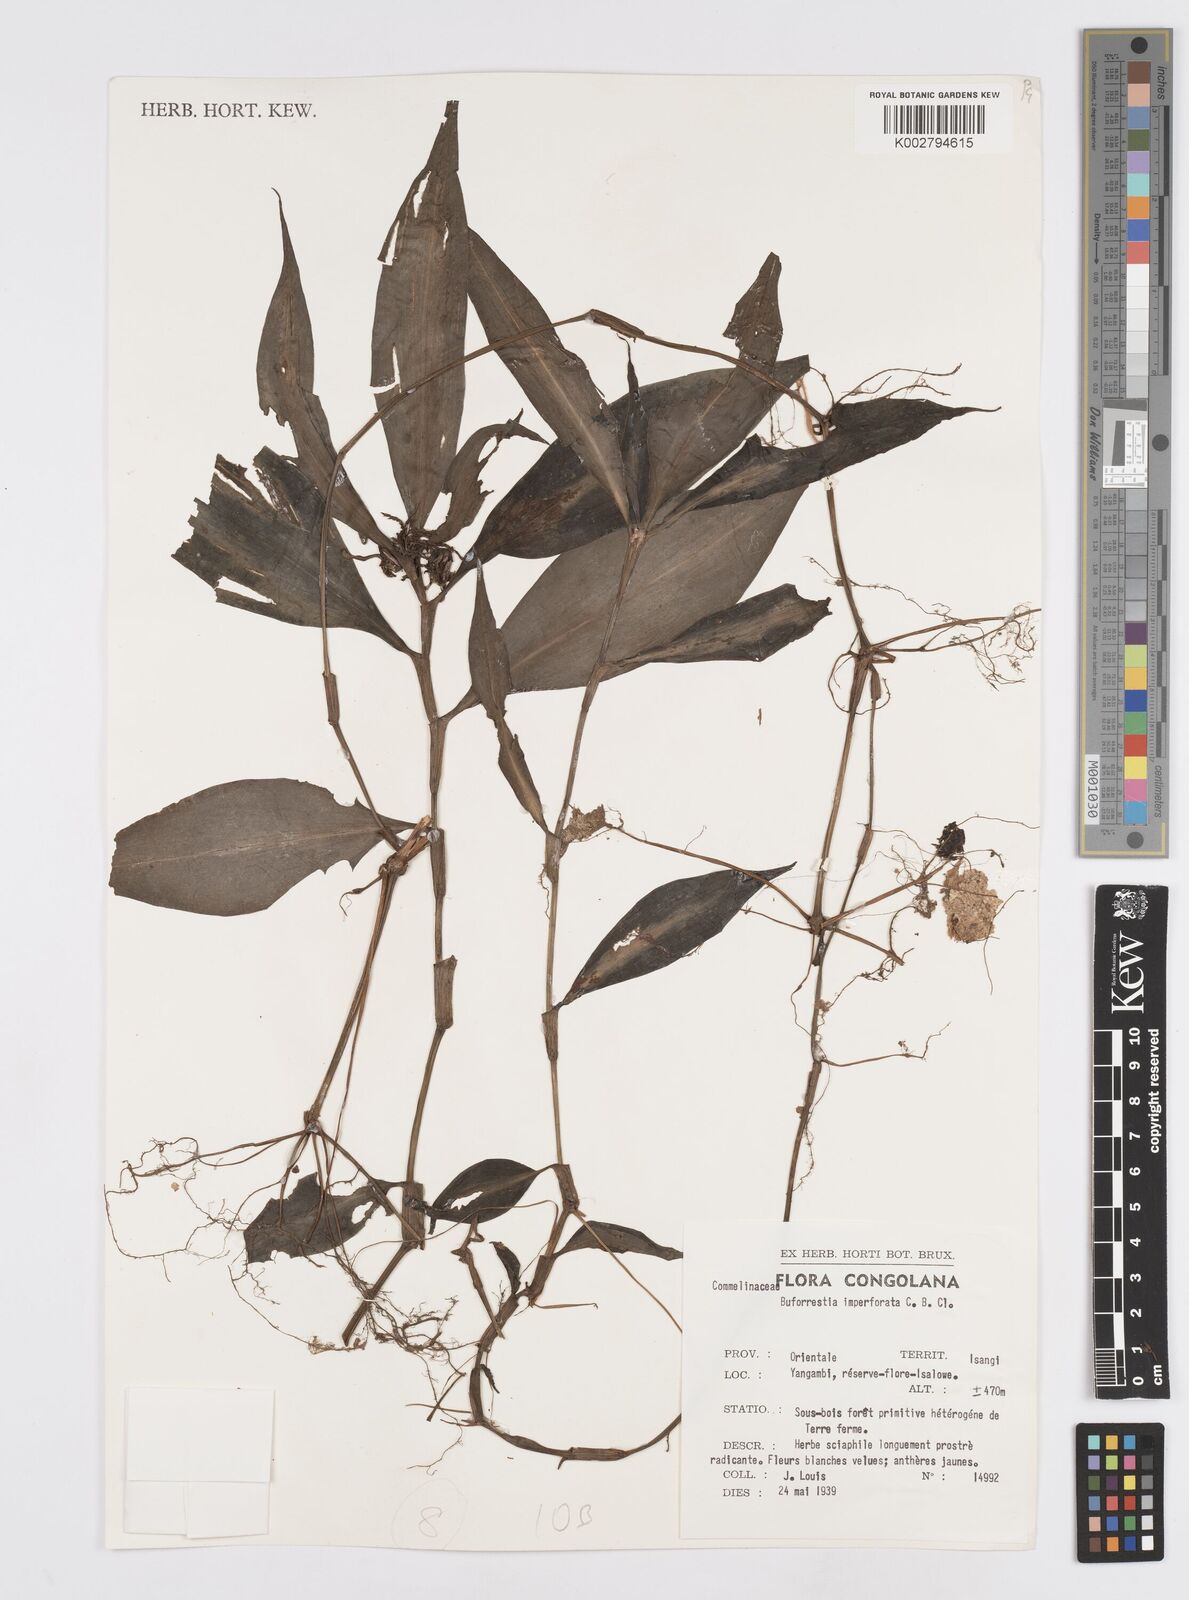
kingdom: Plantae
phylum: Tracheophyta
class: Liliopsida
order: Commelinales
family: Commelinaceae
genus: Stanfieldiella
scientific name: Stanfieldiella imperforata
